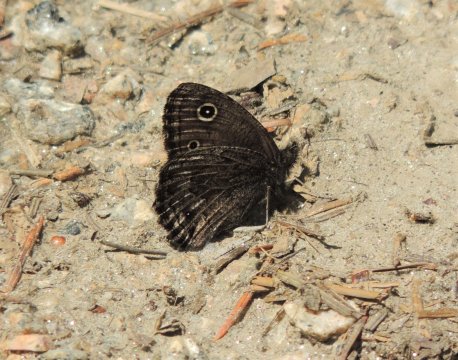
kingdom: Animalia
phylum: Arthropoda
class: Insecta
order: Lepidoptera
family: Nymphalidae
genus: Cercyonis
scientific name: Cercyonis oetus
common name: Small Wood-Nymph
